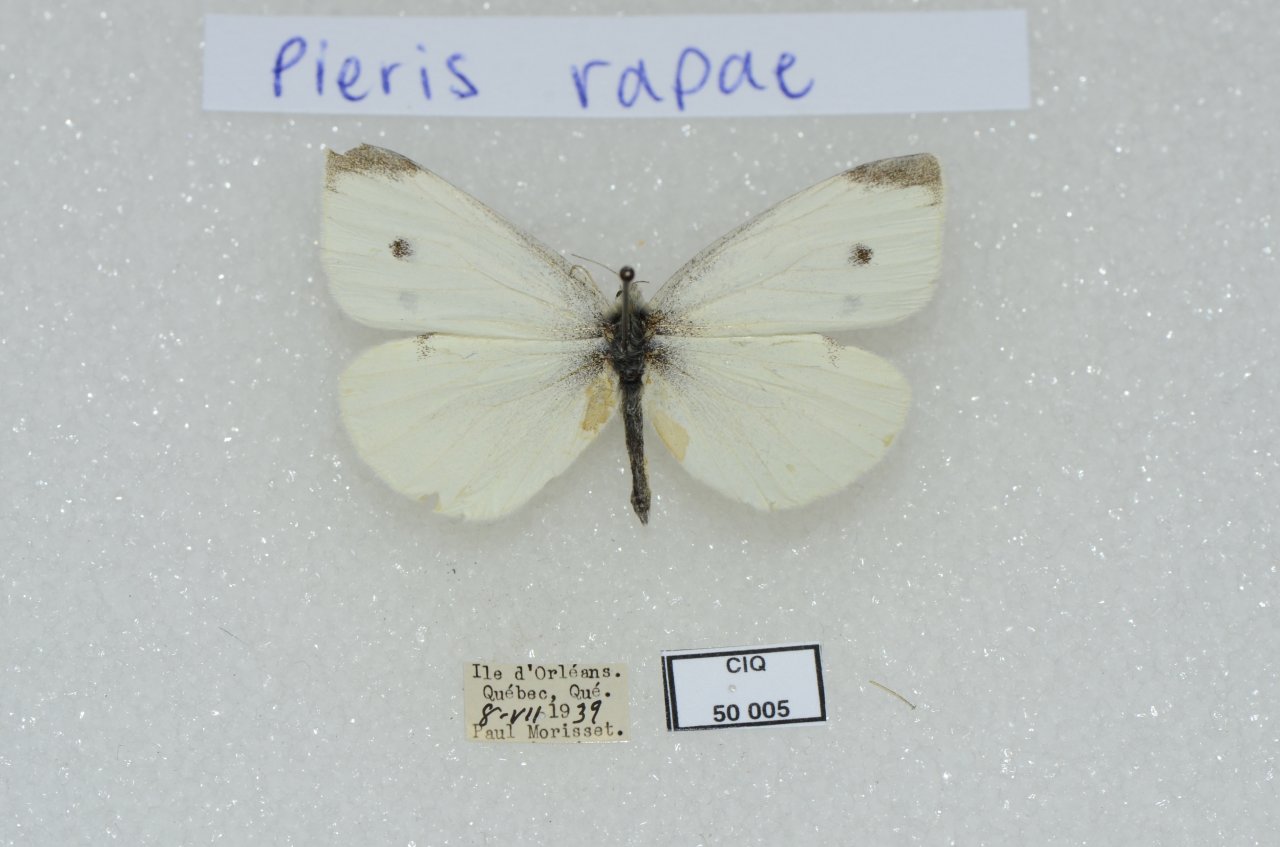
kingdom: Animalia
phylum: Arthropoda
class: Insecta
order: Lepidoptera
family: Pieridae
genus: Pieris
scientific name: Pieris rapae
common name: Cabbage White
